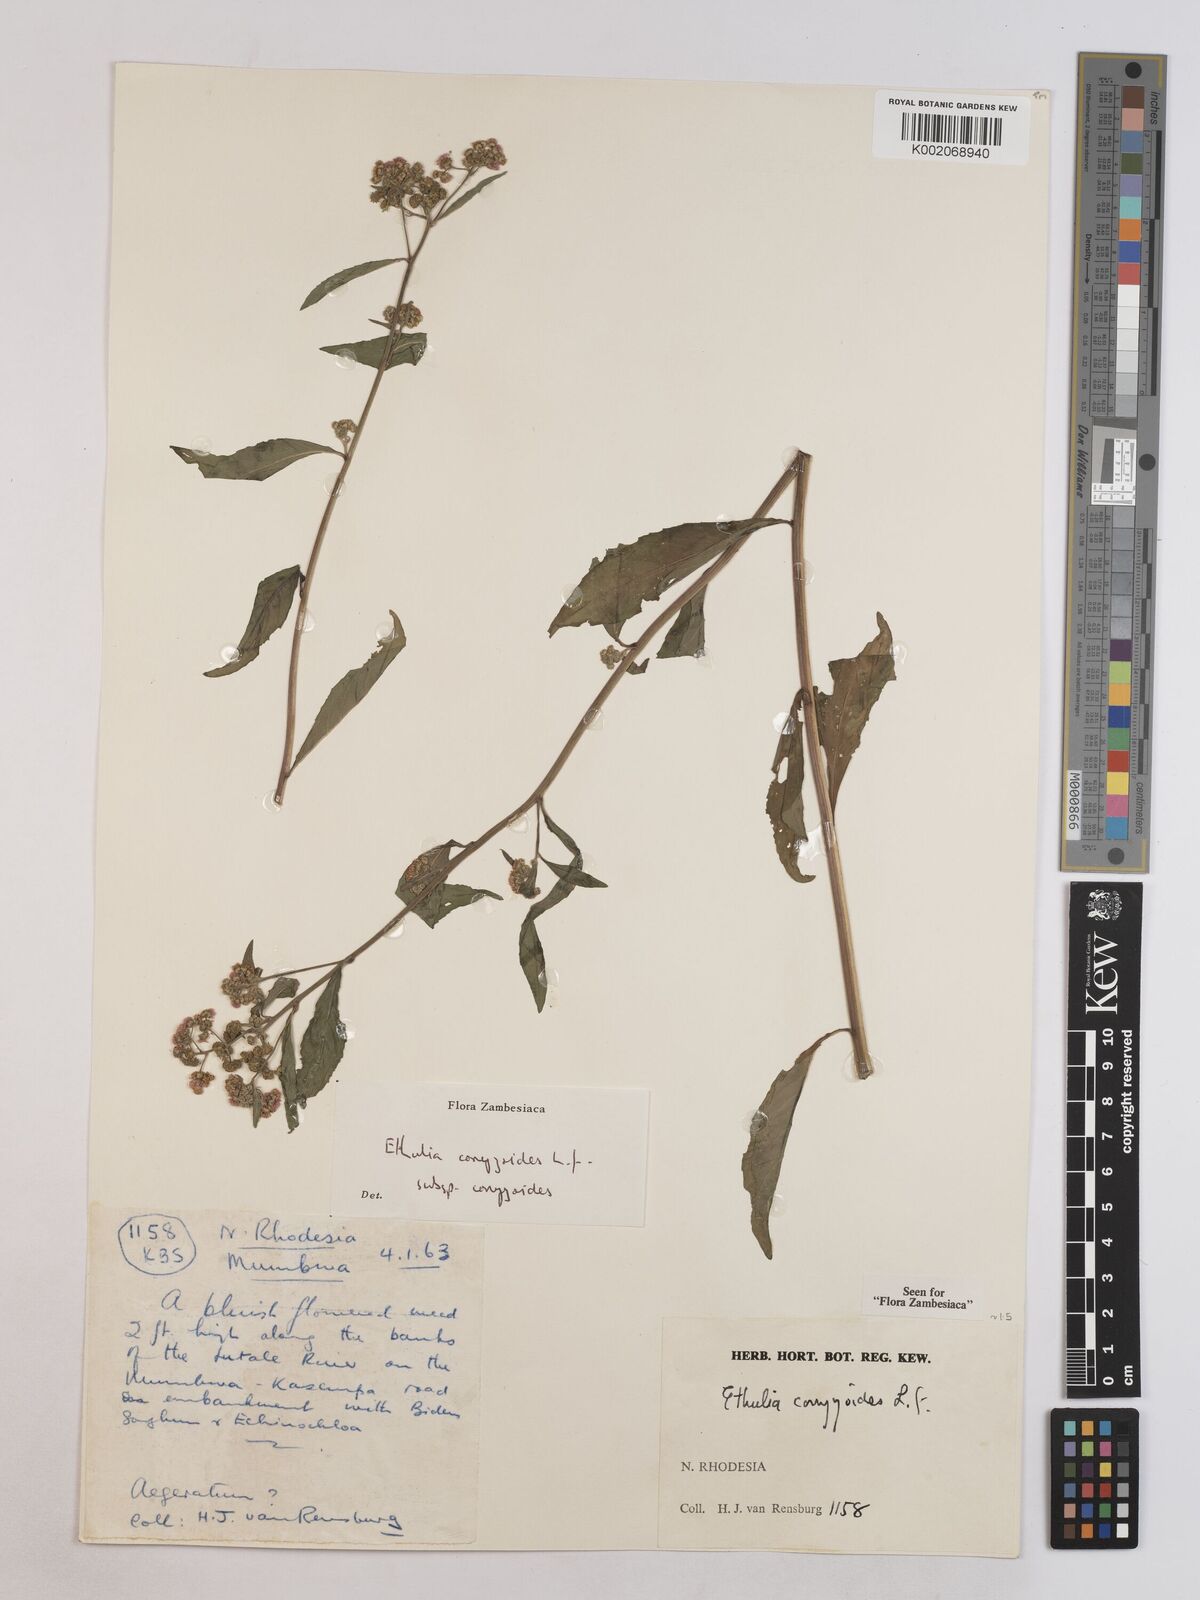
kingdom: Plantae
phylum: Tracheophyta
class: Magnoliopsida
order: Asterales
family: Asteraceae
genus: Ethulia
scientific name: Ethulia conyzoides
